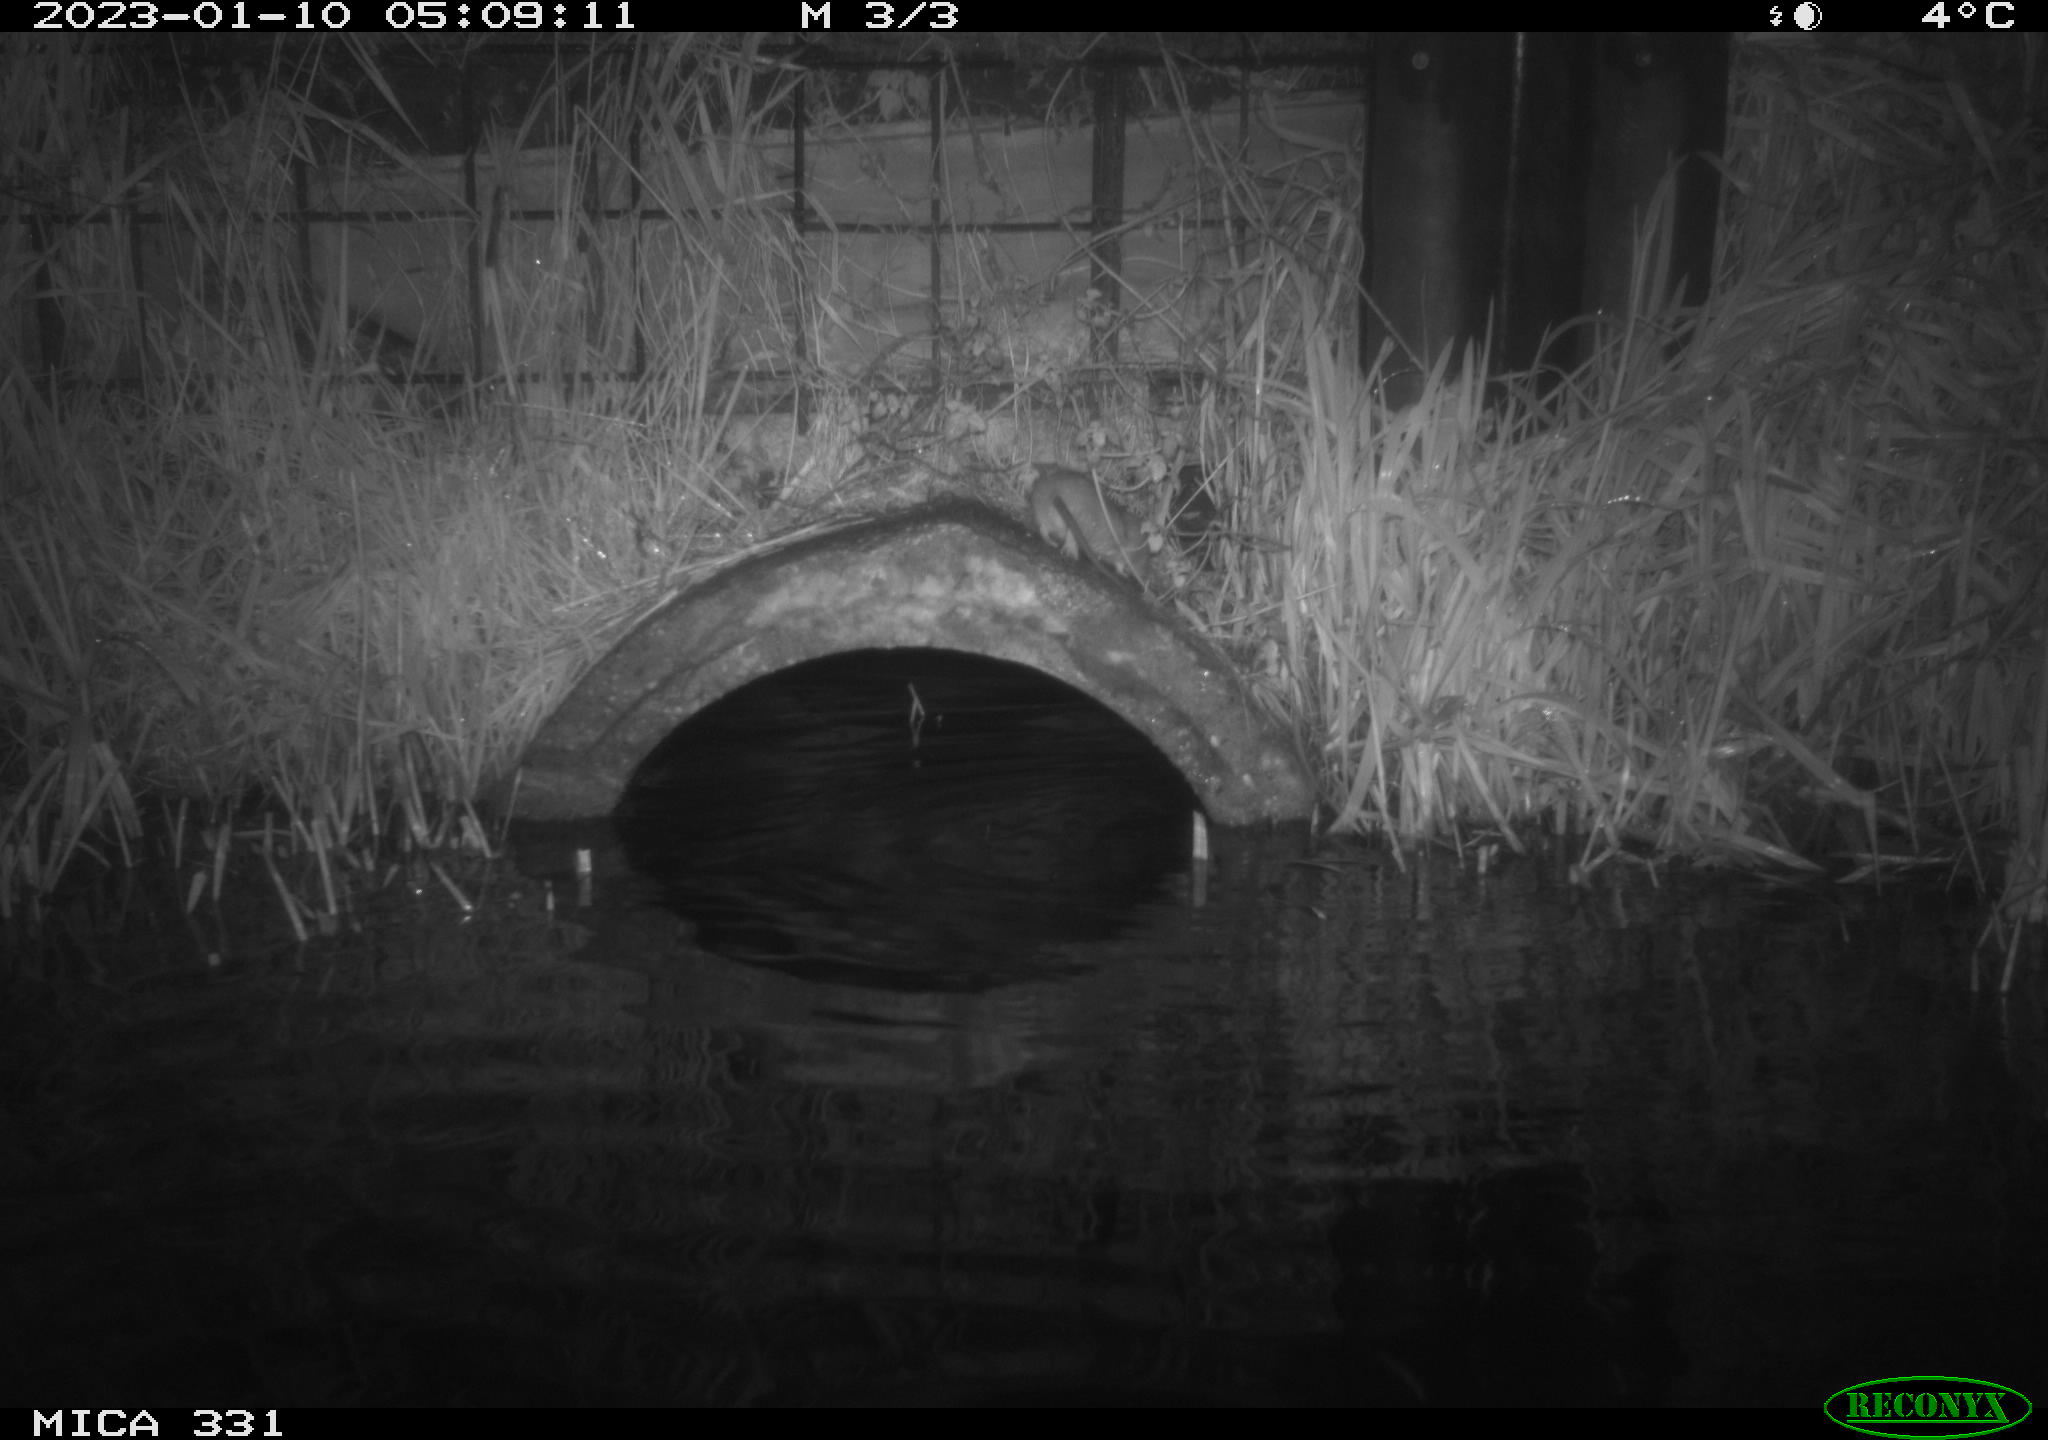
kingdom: Animalia
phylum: Chordata
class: Mammalia
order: Rodentia
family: Muridae
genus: Rattus
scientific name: Rattus norvegicus
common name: Brown rat
